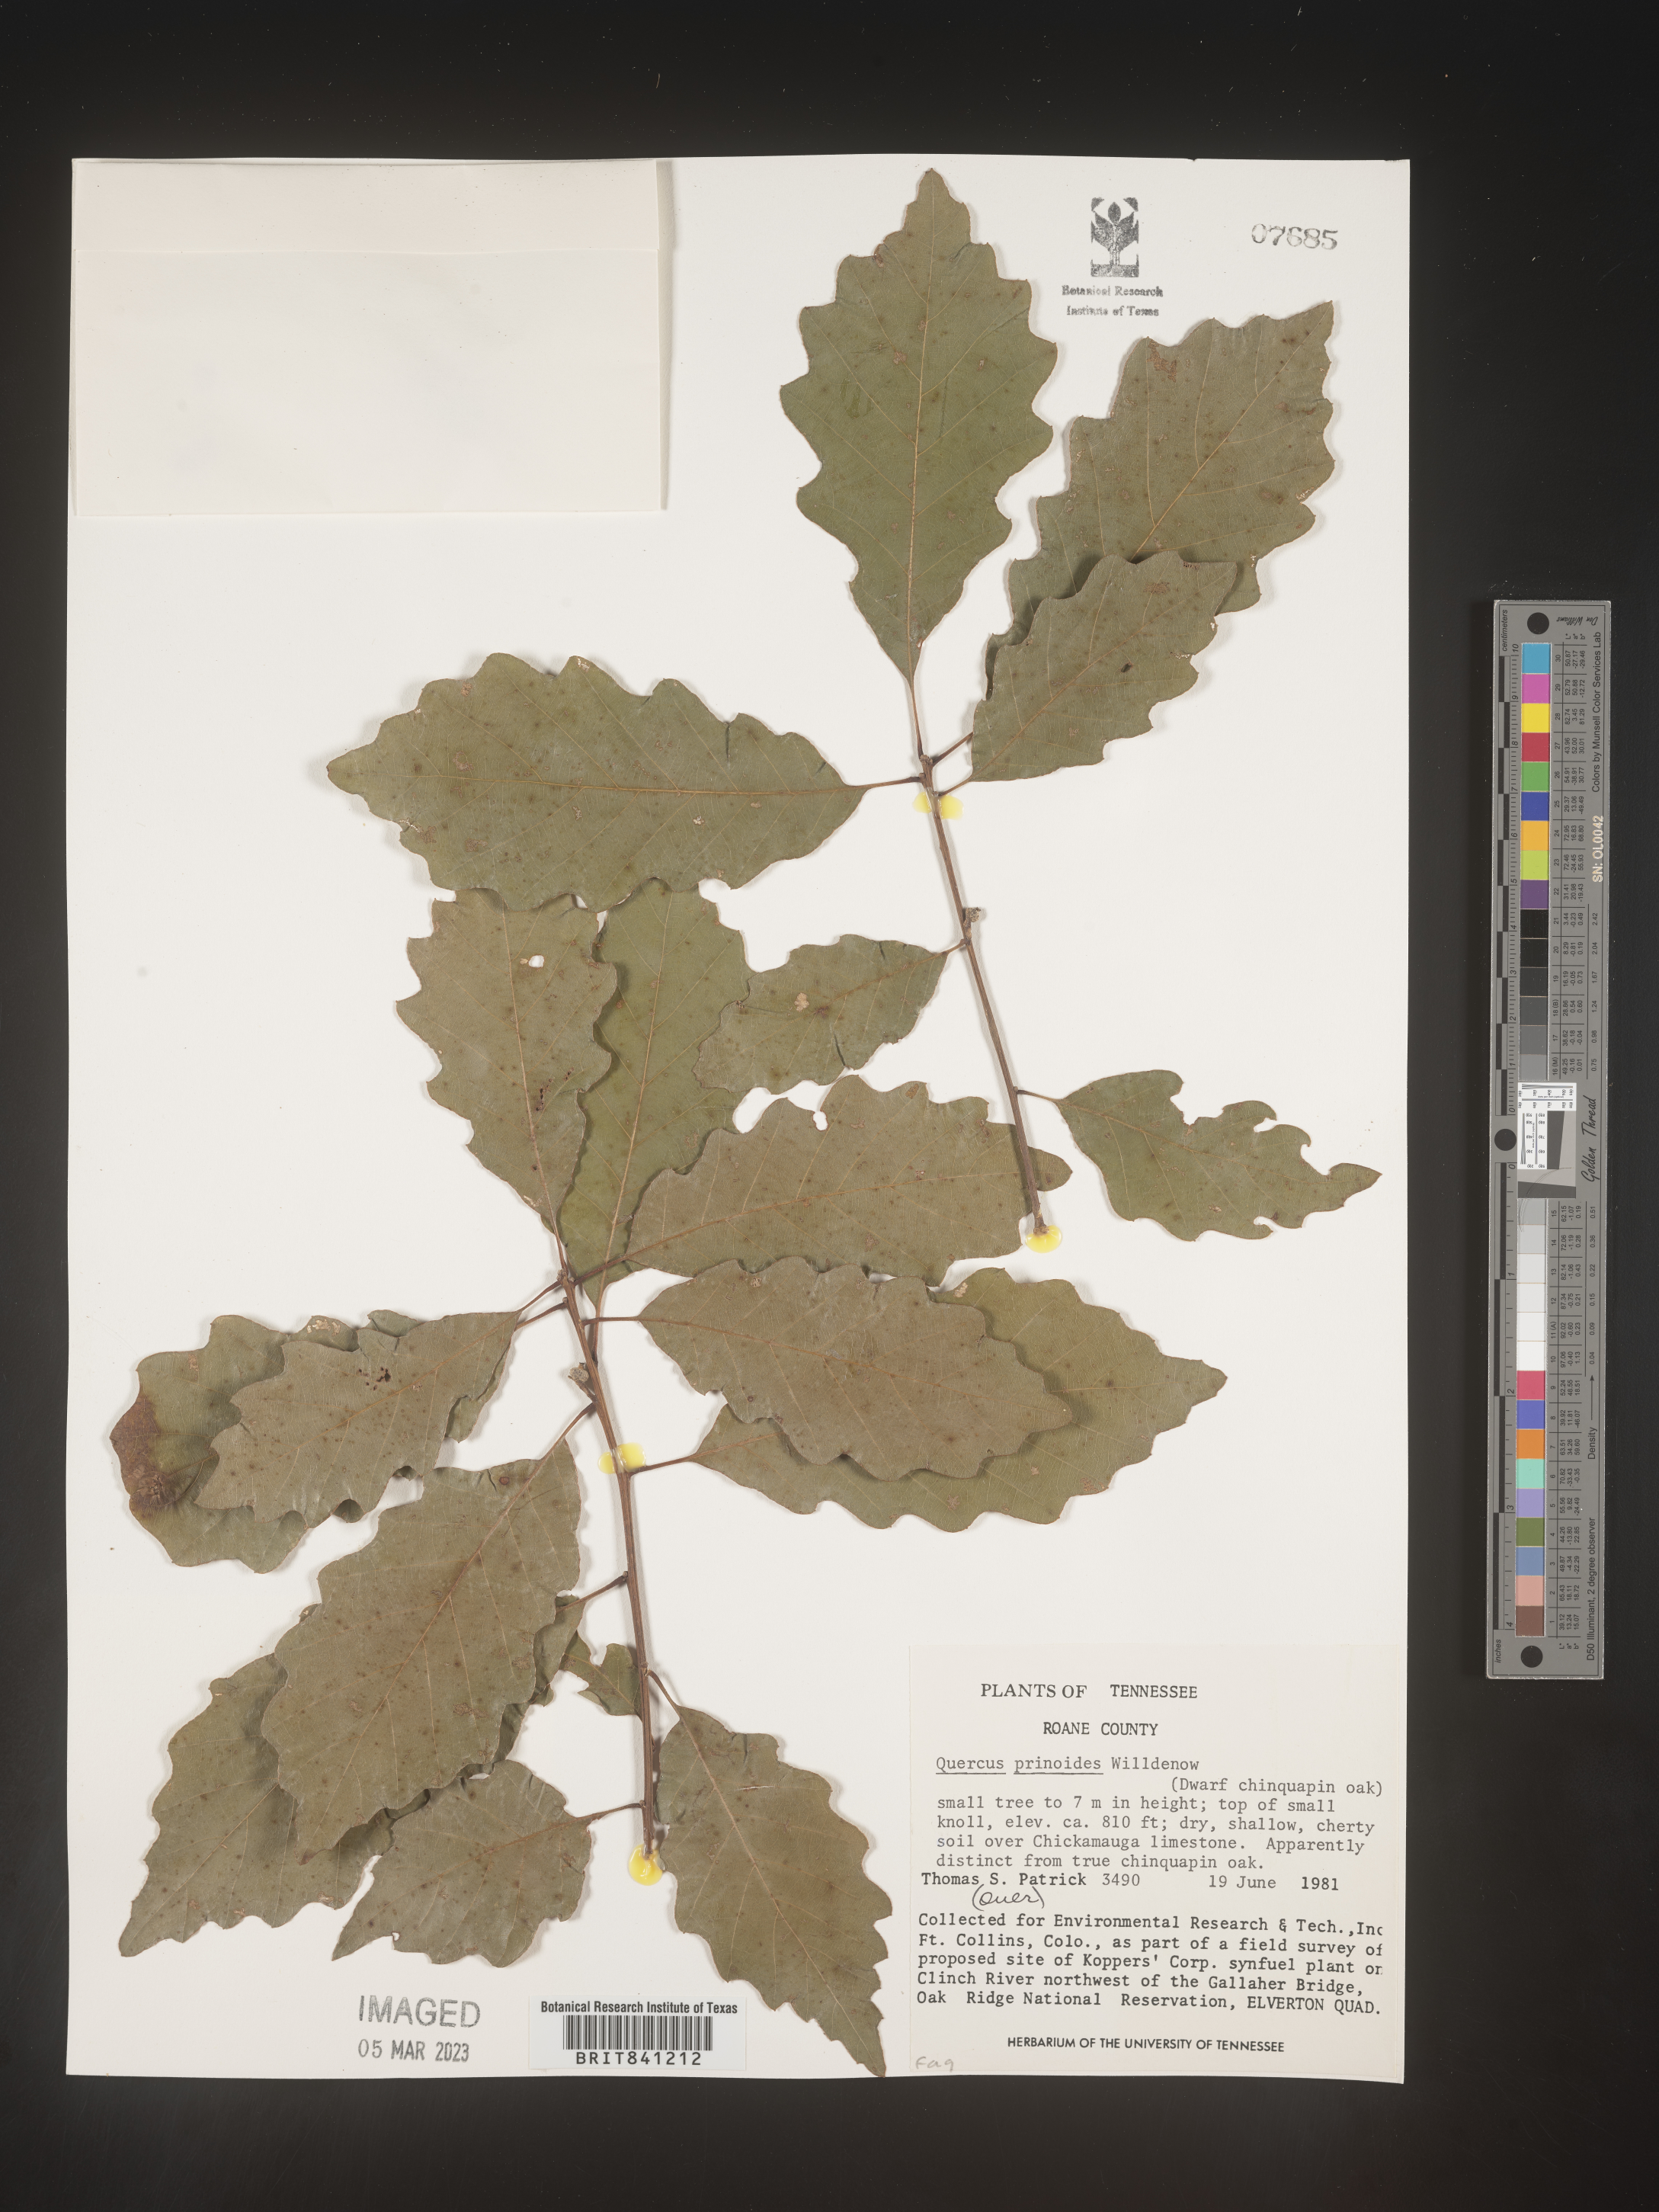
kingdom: Plantae
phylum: Tracheophyta
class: Magnoliopsida
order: Fagales
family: Fagaceae
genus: Quercus
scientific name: Quercus prinoides
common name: Dwarf chinkapin oak
